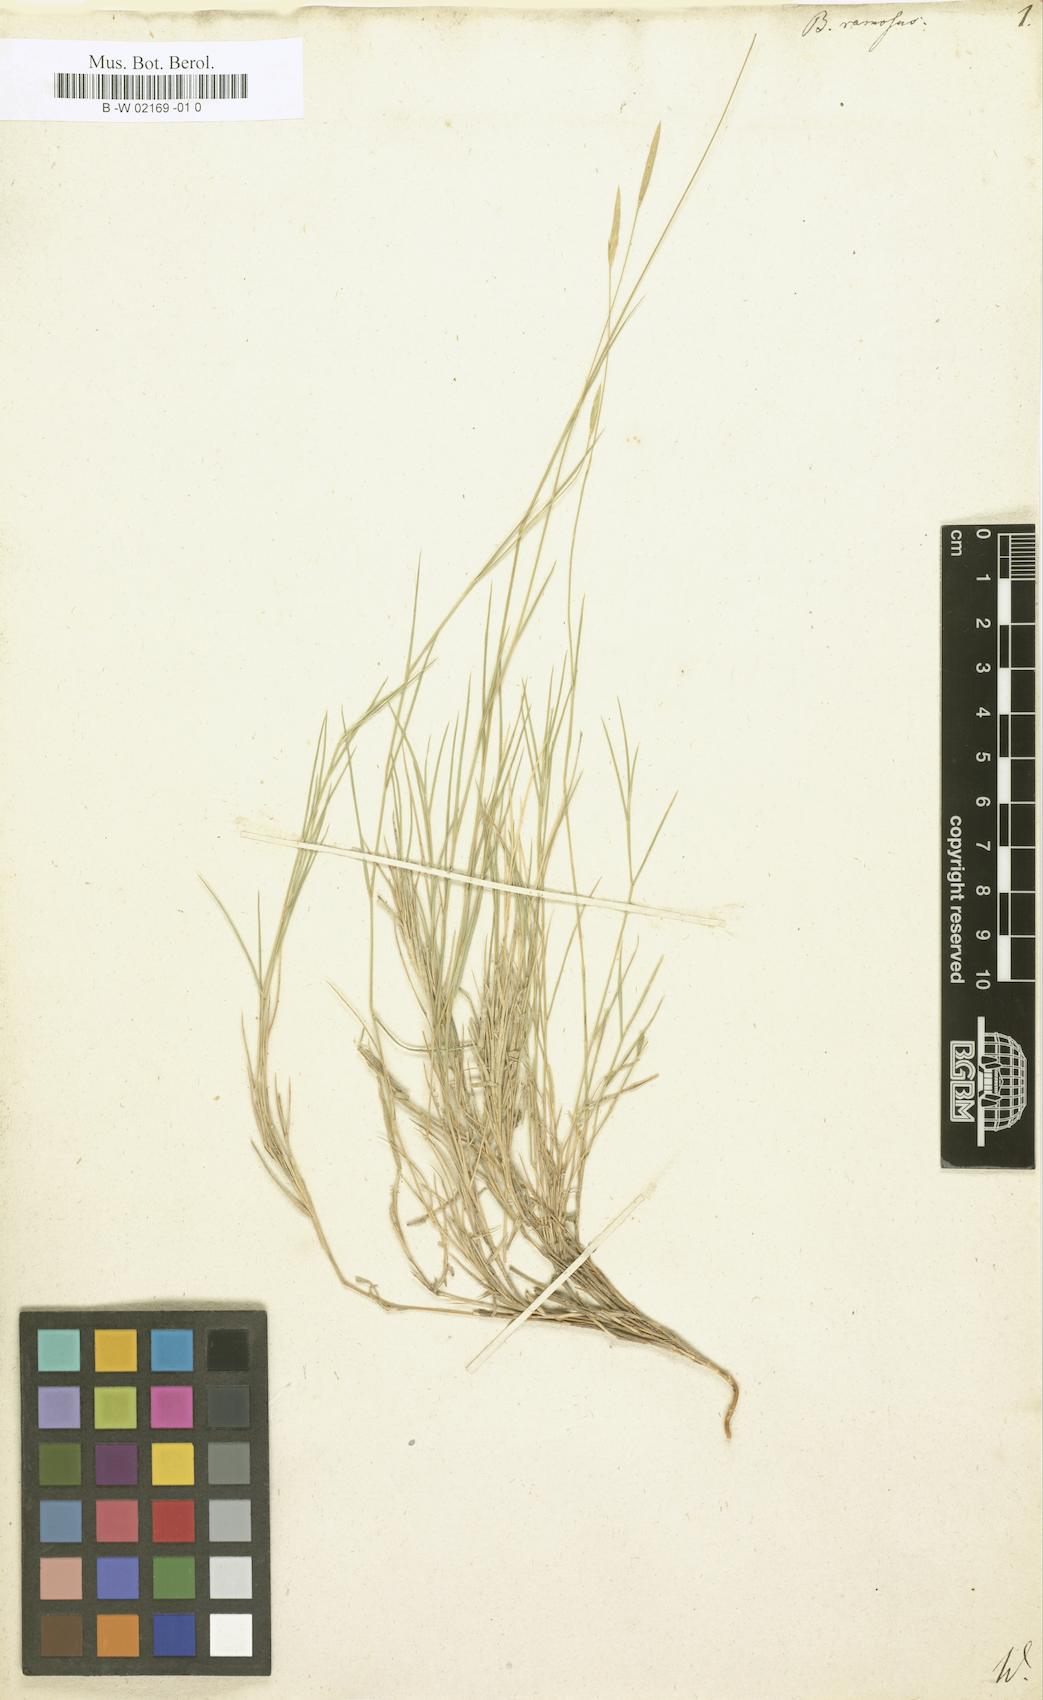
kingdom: Plantae
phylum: Tracheophyta
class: Liliopsida
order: Poales
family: Poaceae
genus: Bromus
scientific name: Bromus ramosus
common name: Hairy brome
